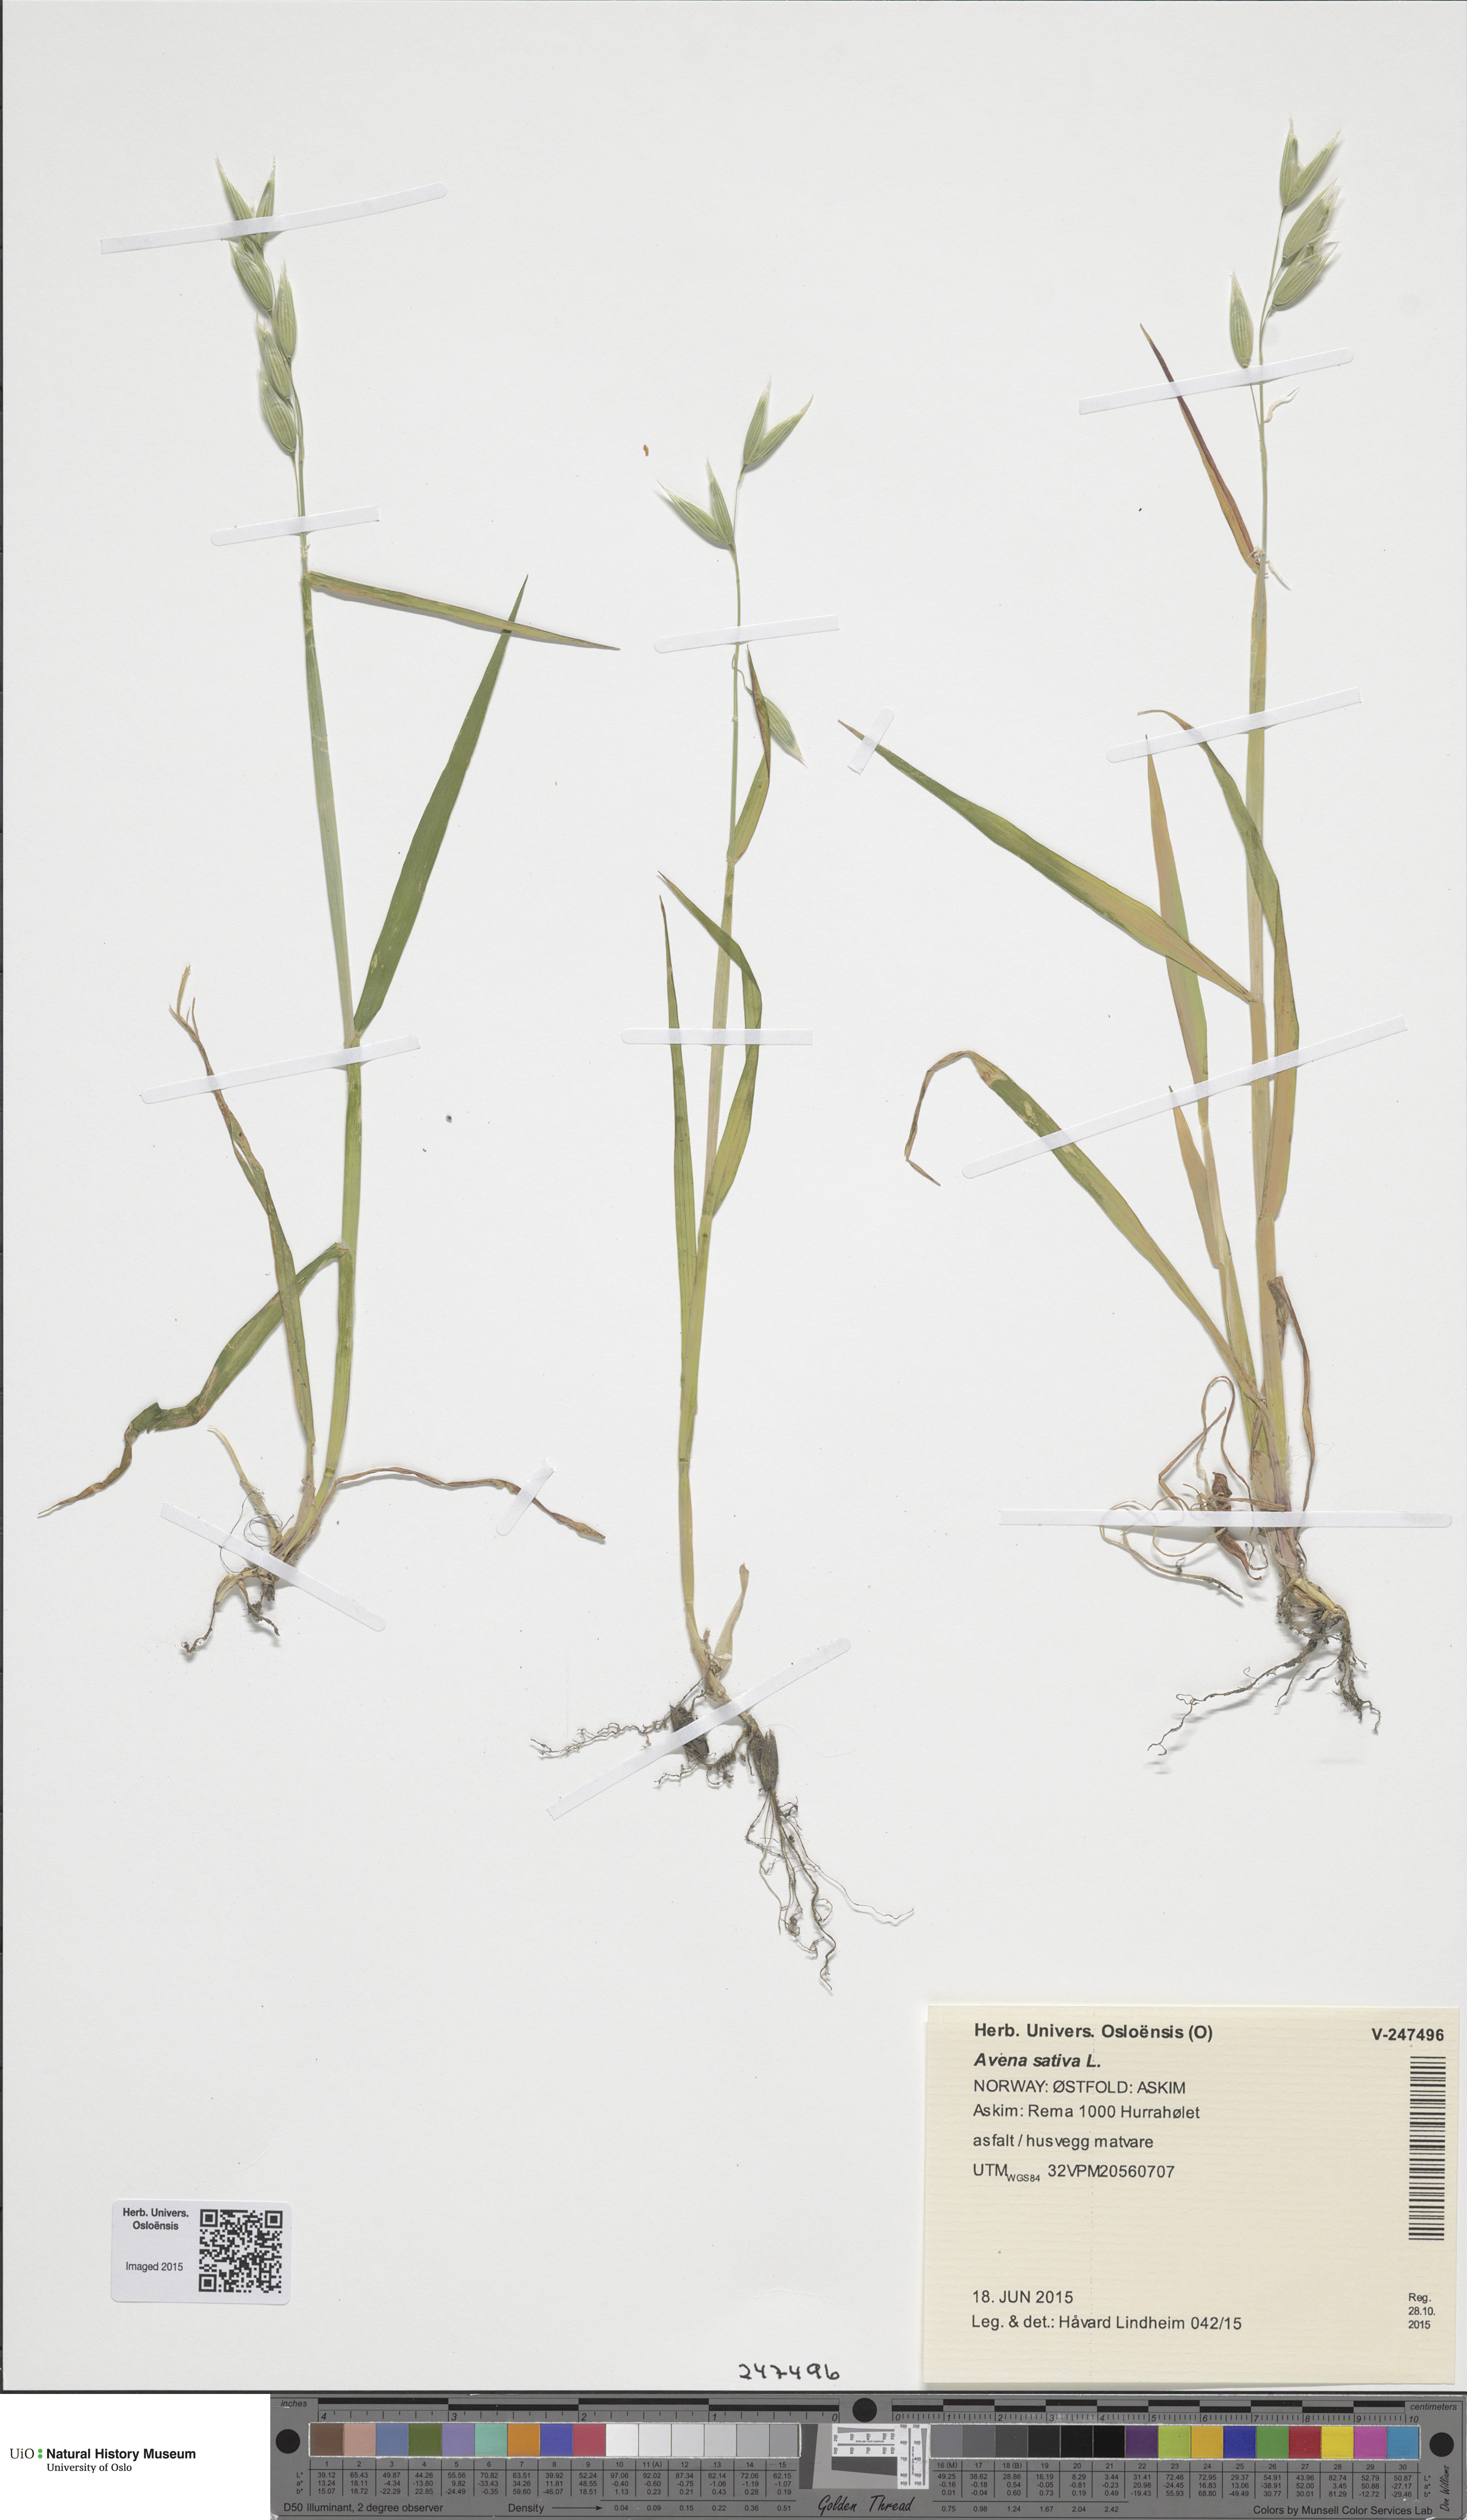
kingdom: Plantae
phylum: Tracheophyta
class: Liliopsida
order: Poales
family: Poaceae
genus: Avena
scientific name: Avena sativa
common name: Oat
